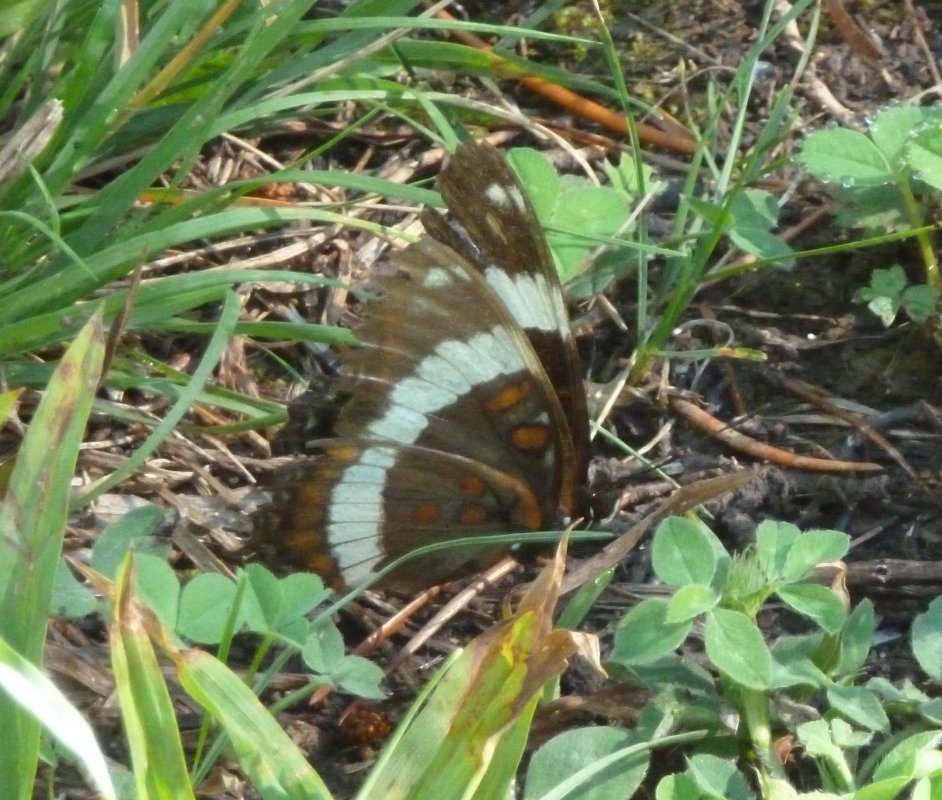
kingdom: Animalia
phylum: Arthropoda
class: Insecta
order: Lepidoptera
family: Nymphalidae
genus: Limenitis
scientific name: Limenitis arthemis
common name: Red-spotted Admiral
